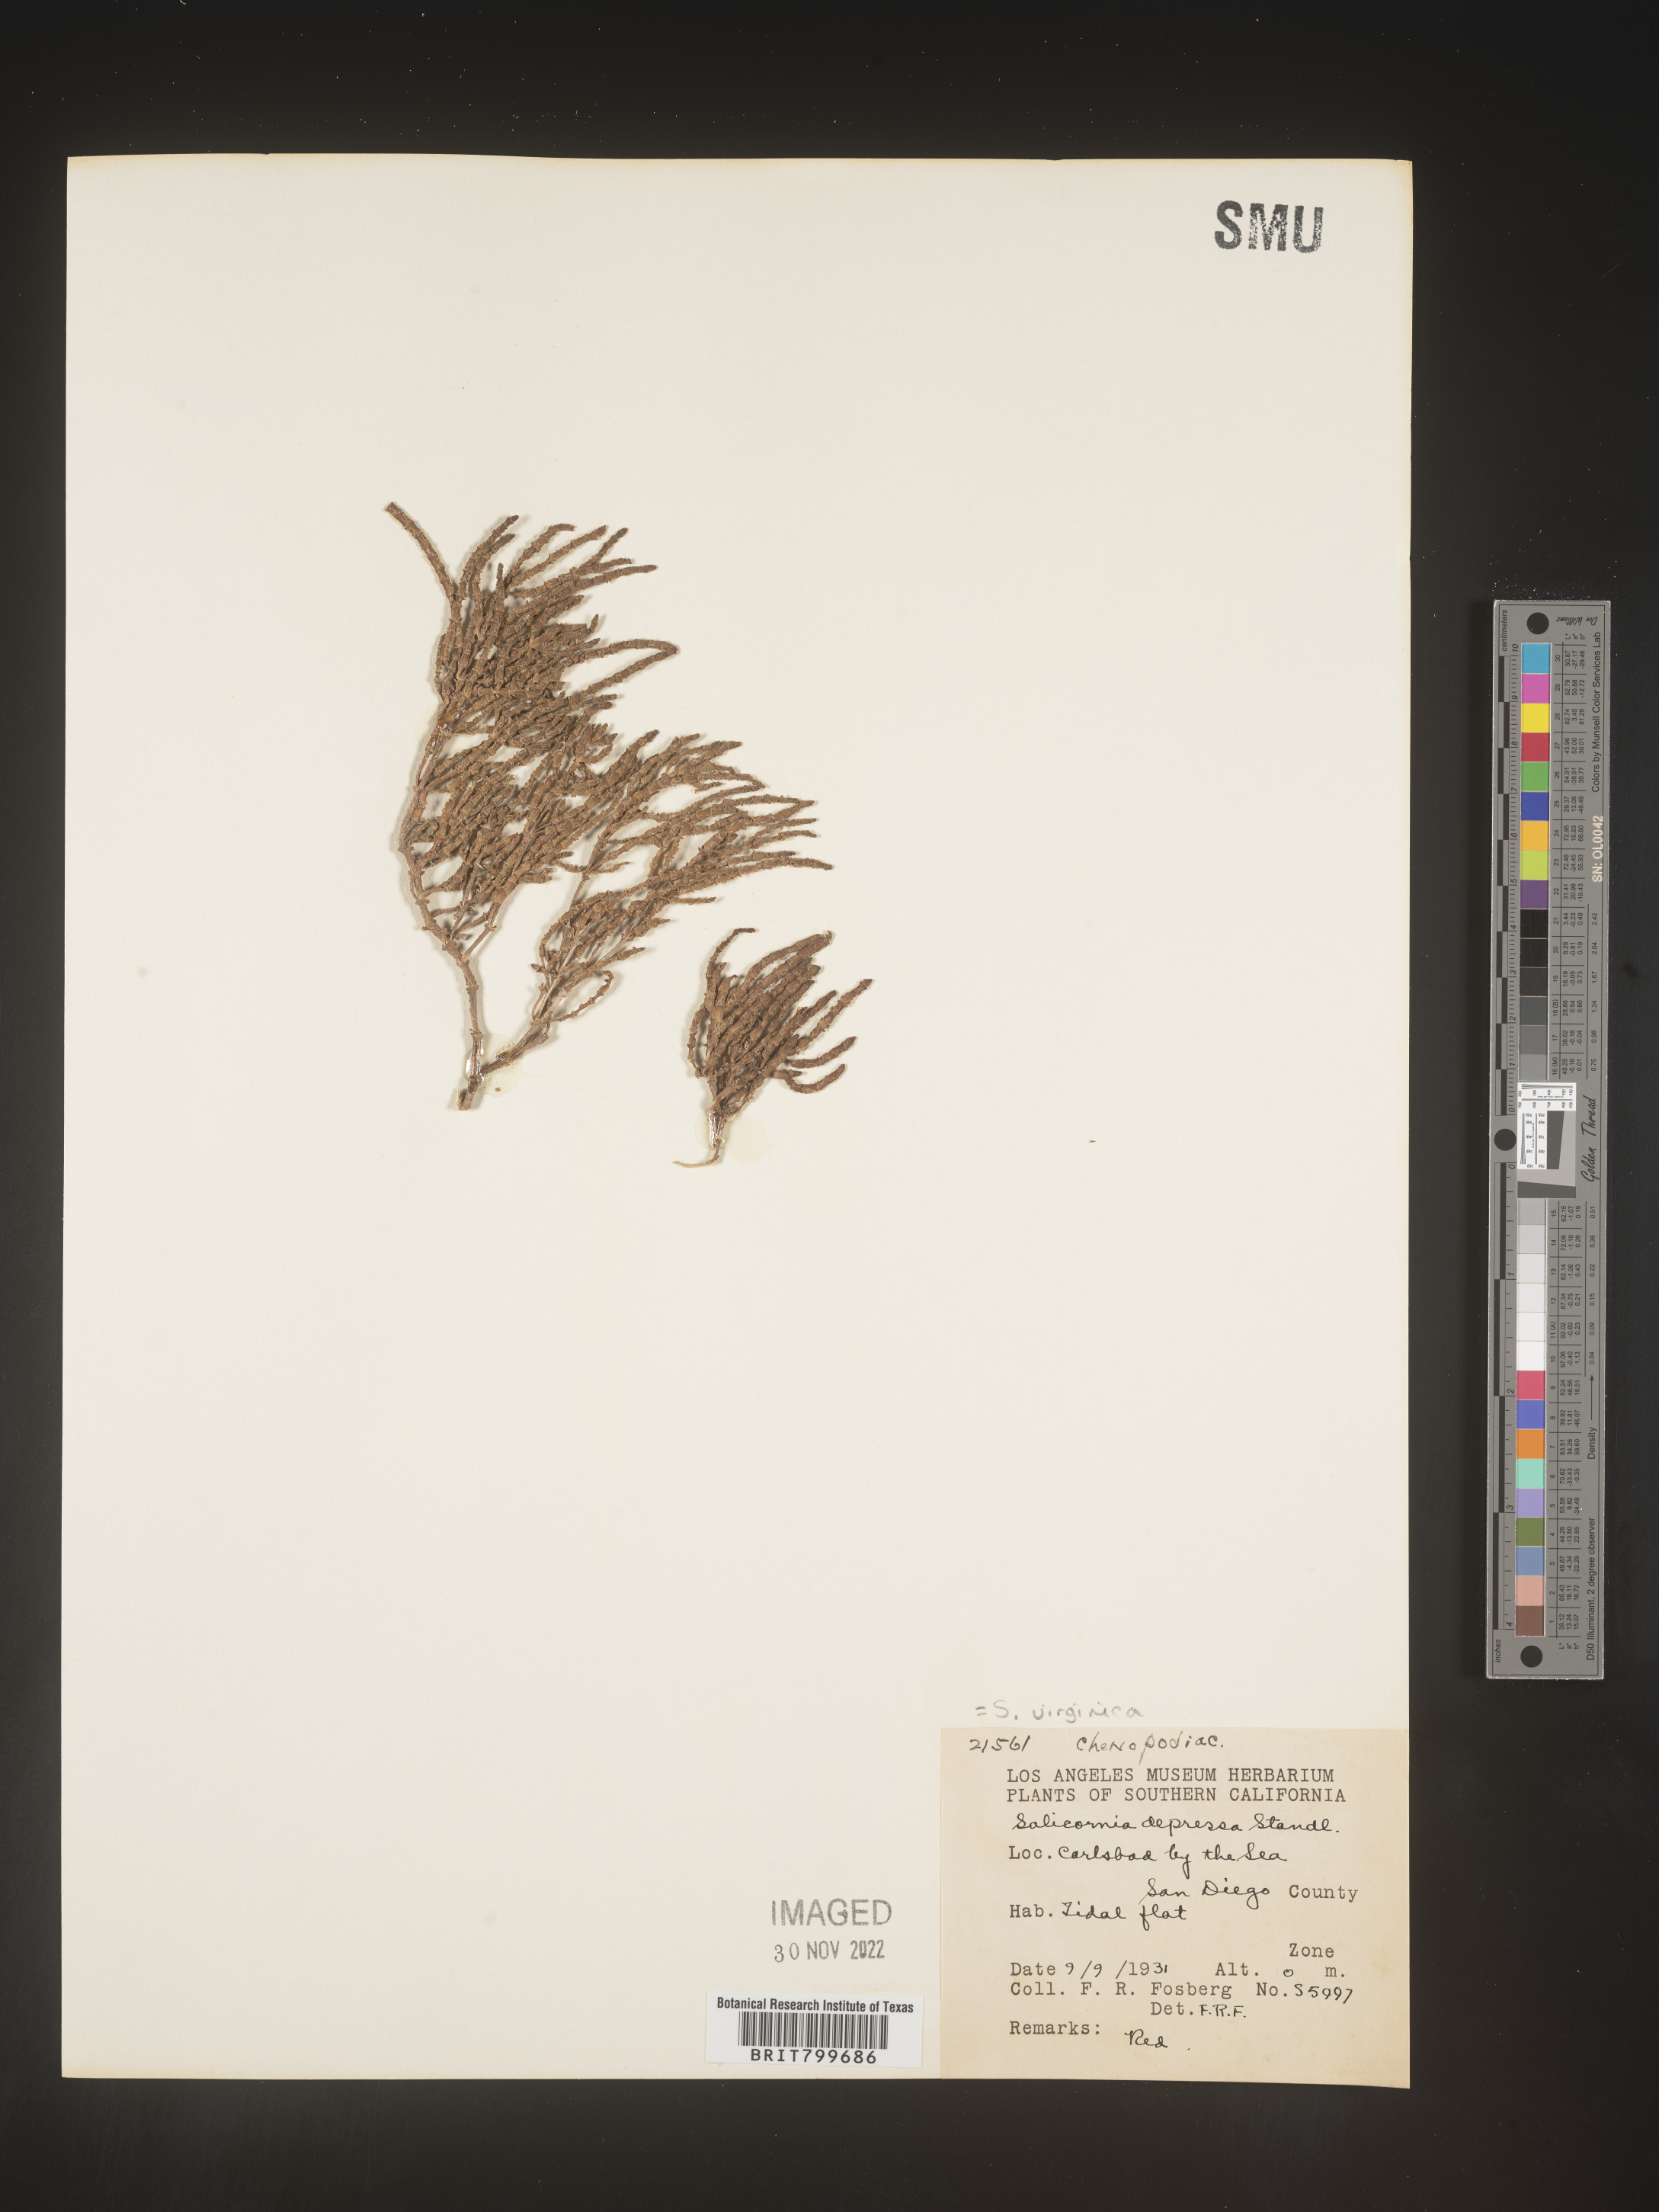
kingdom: Plantae
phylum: Tracheophyta
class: Magnoliopsida
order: Caryophyllales
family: Amaranthaceae
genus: Salicornia
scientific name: Salicornia virginica
